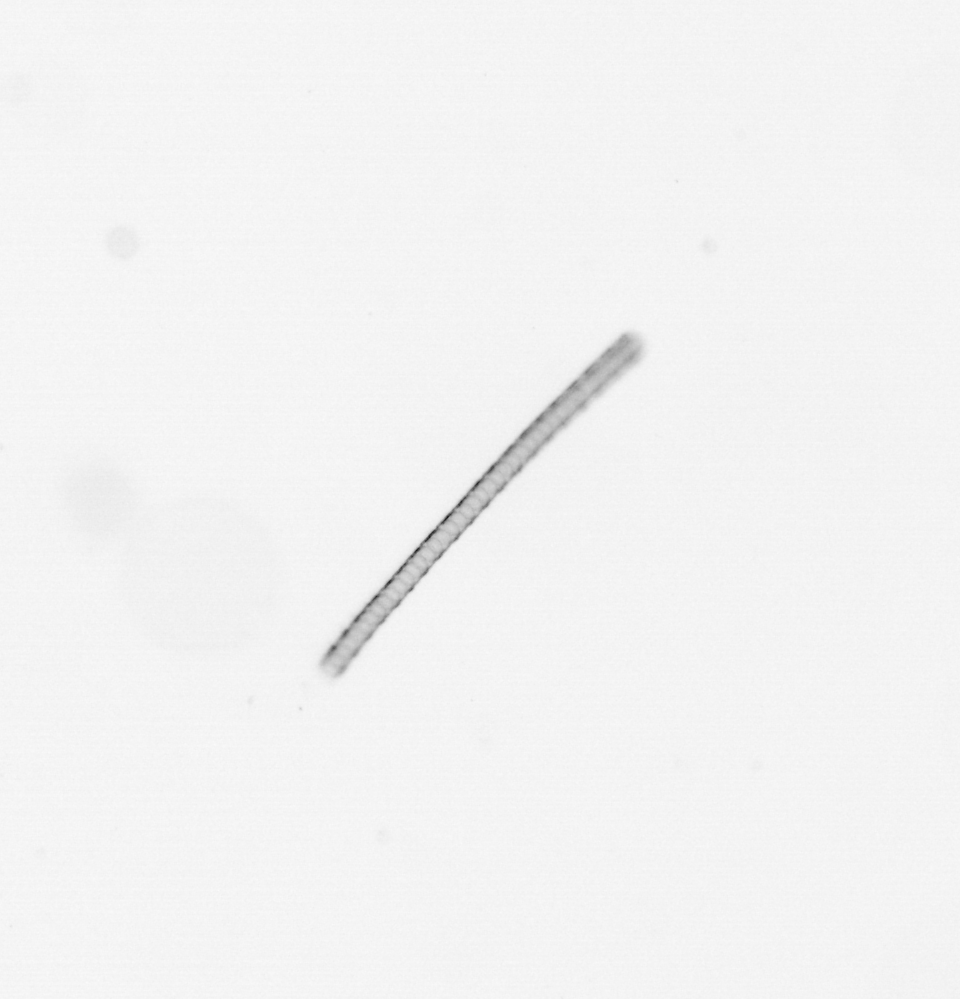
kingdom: Chromista
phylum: Ochrophyta
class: Bacillariophyceae
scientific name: Bacillariophyceae
